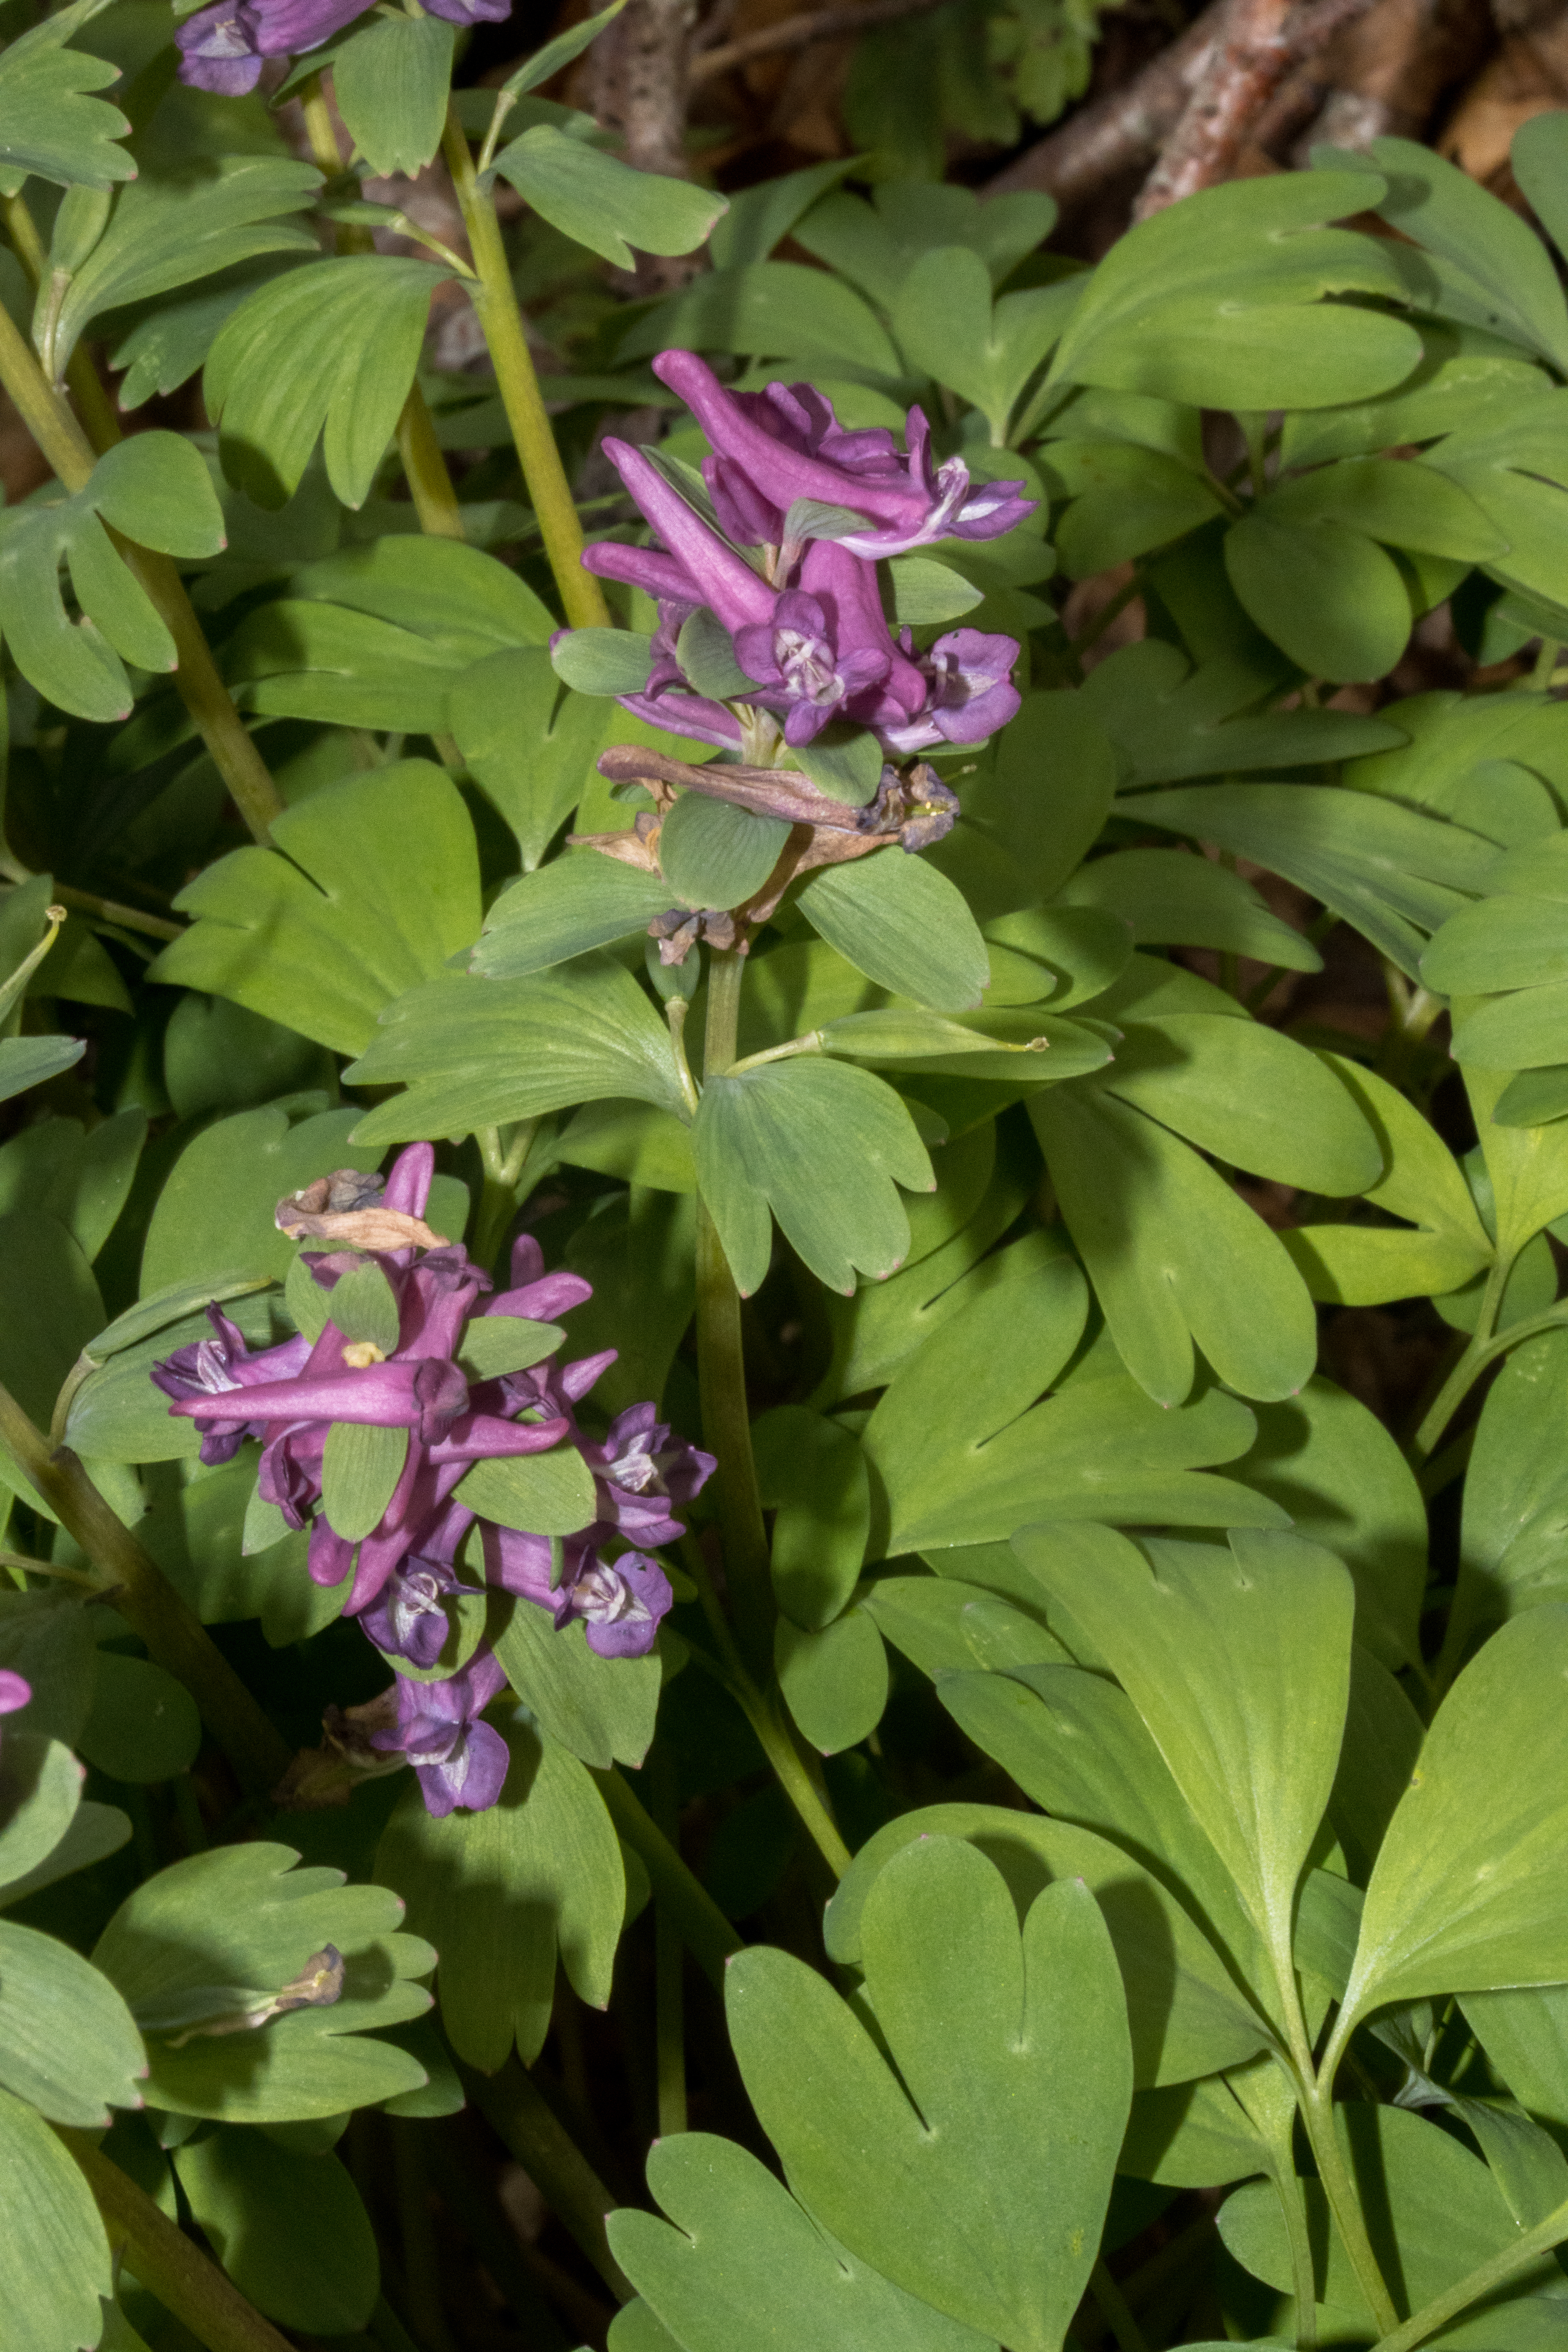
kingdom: Plantae
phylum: Tracheophyta
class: Magnoliopsida
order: Ranunculales
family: Papaveraceae
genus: Corydalis
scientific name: Corydalis
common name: Hulrodet × langstilket lærkespore
